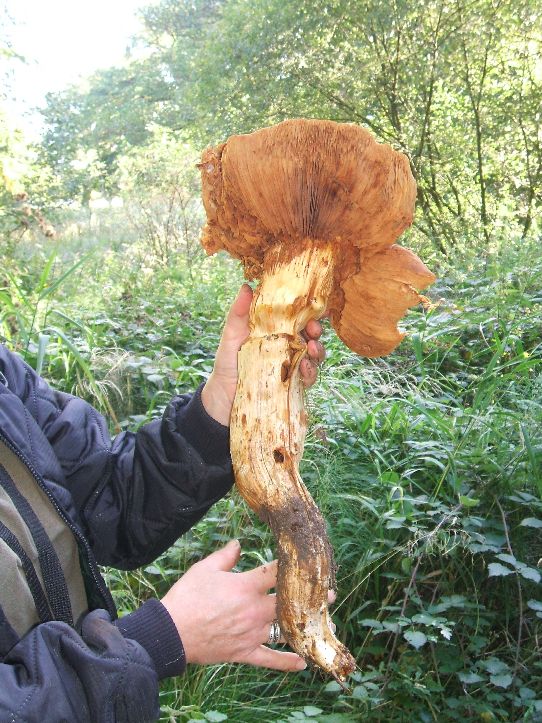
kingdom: Fungi
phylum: Basidiomycota
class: Agaricomycetes
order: Agaricales
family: Hymenogastraceae
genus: Gymnopilus
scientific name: Gymnopilus spectabilis
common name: fibret flammehat
